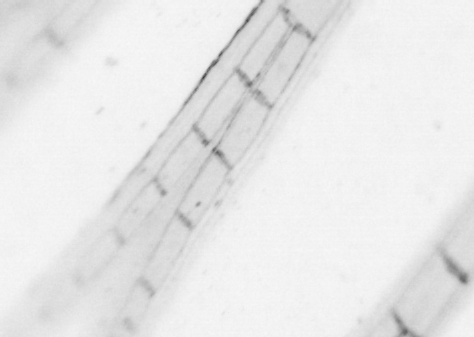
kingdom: Animalia
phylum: Chordata
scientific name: Chordata
